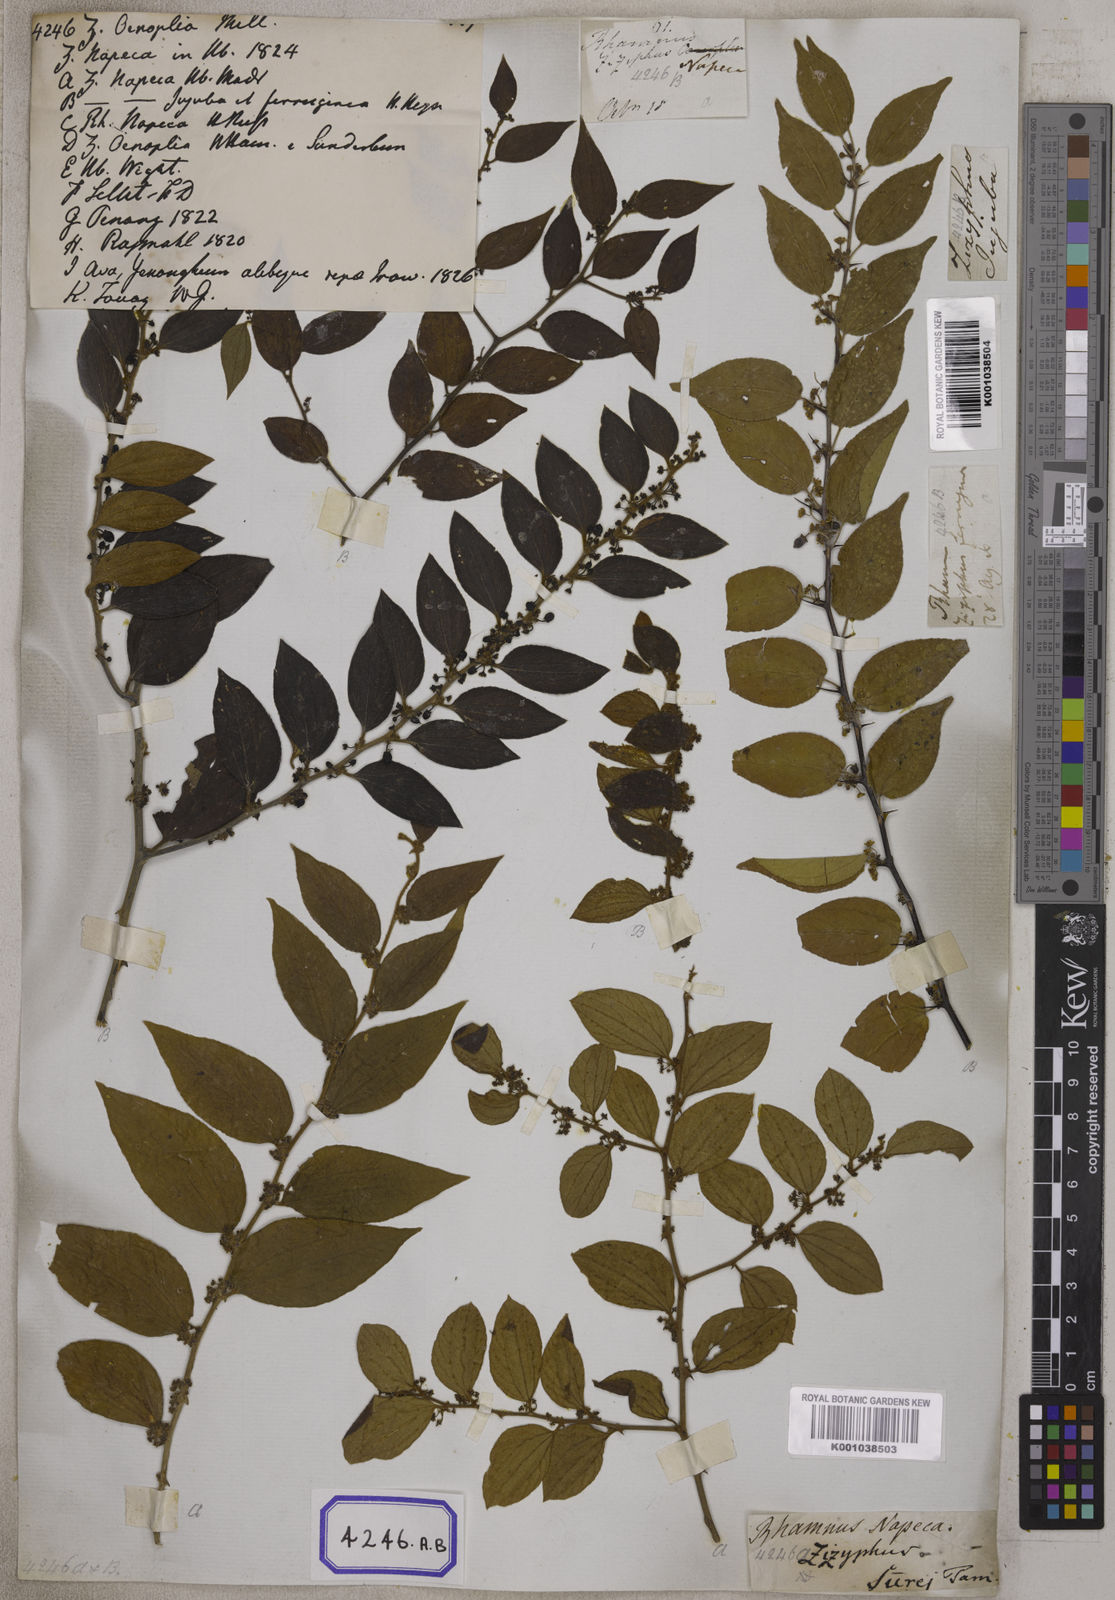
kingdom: Plantae
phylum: Tracheophyta
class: Magnoliopsida
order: Rosales
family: Rhamnaceae
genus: Ziziphus
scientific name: Ziziphus
